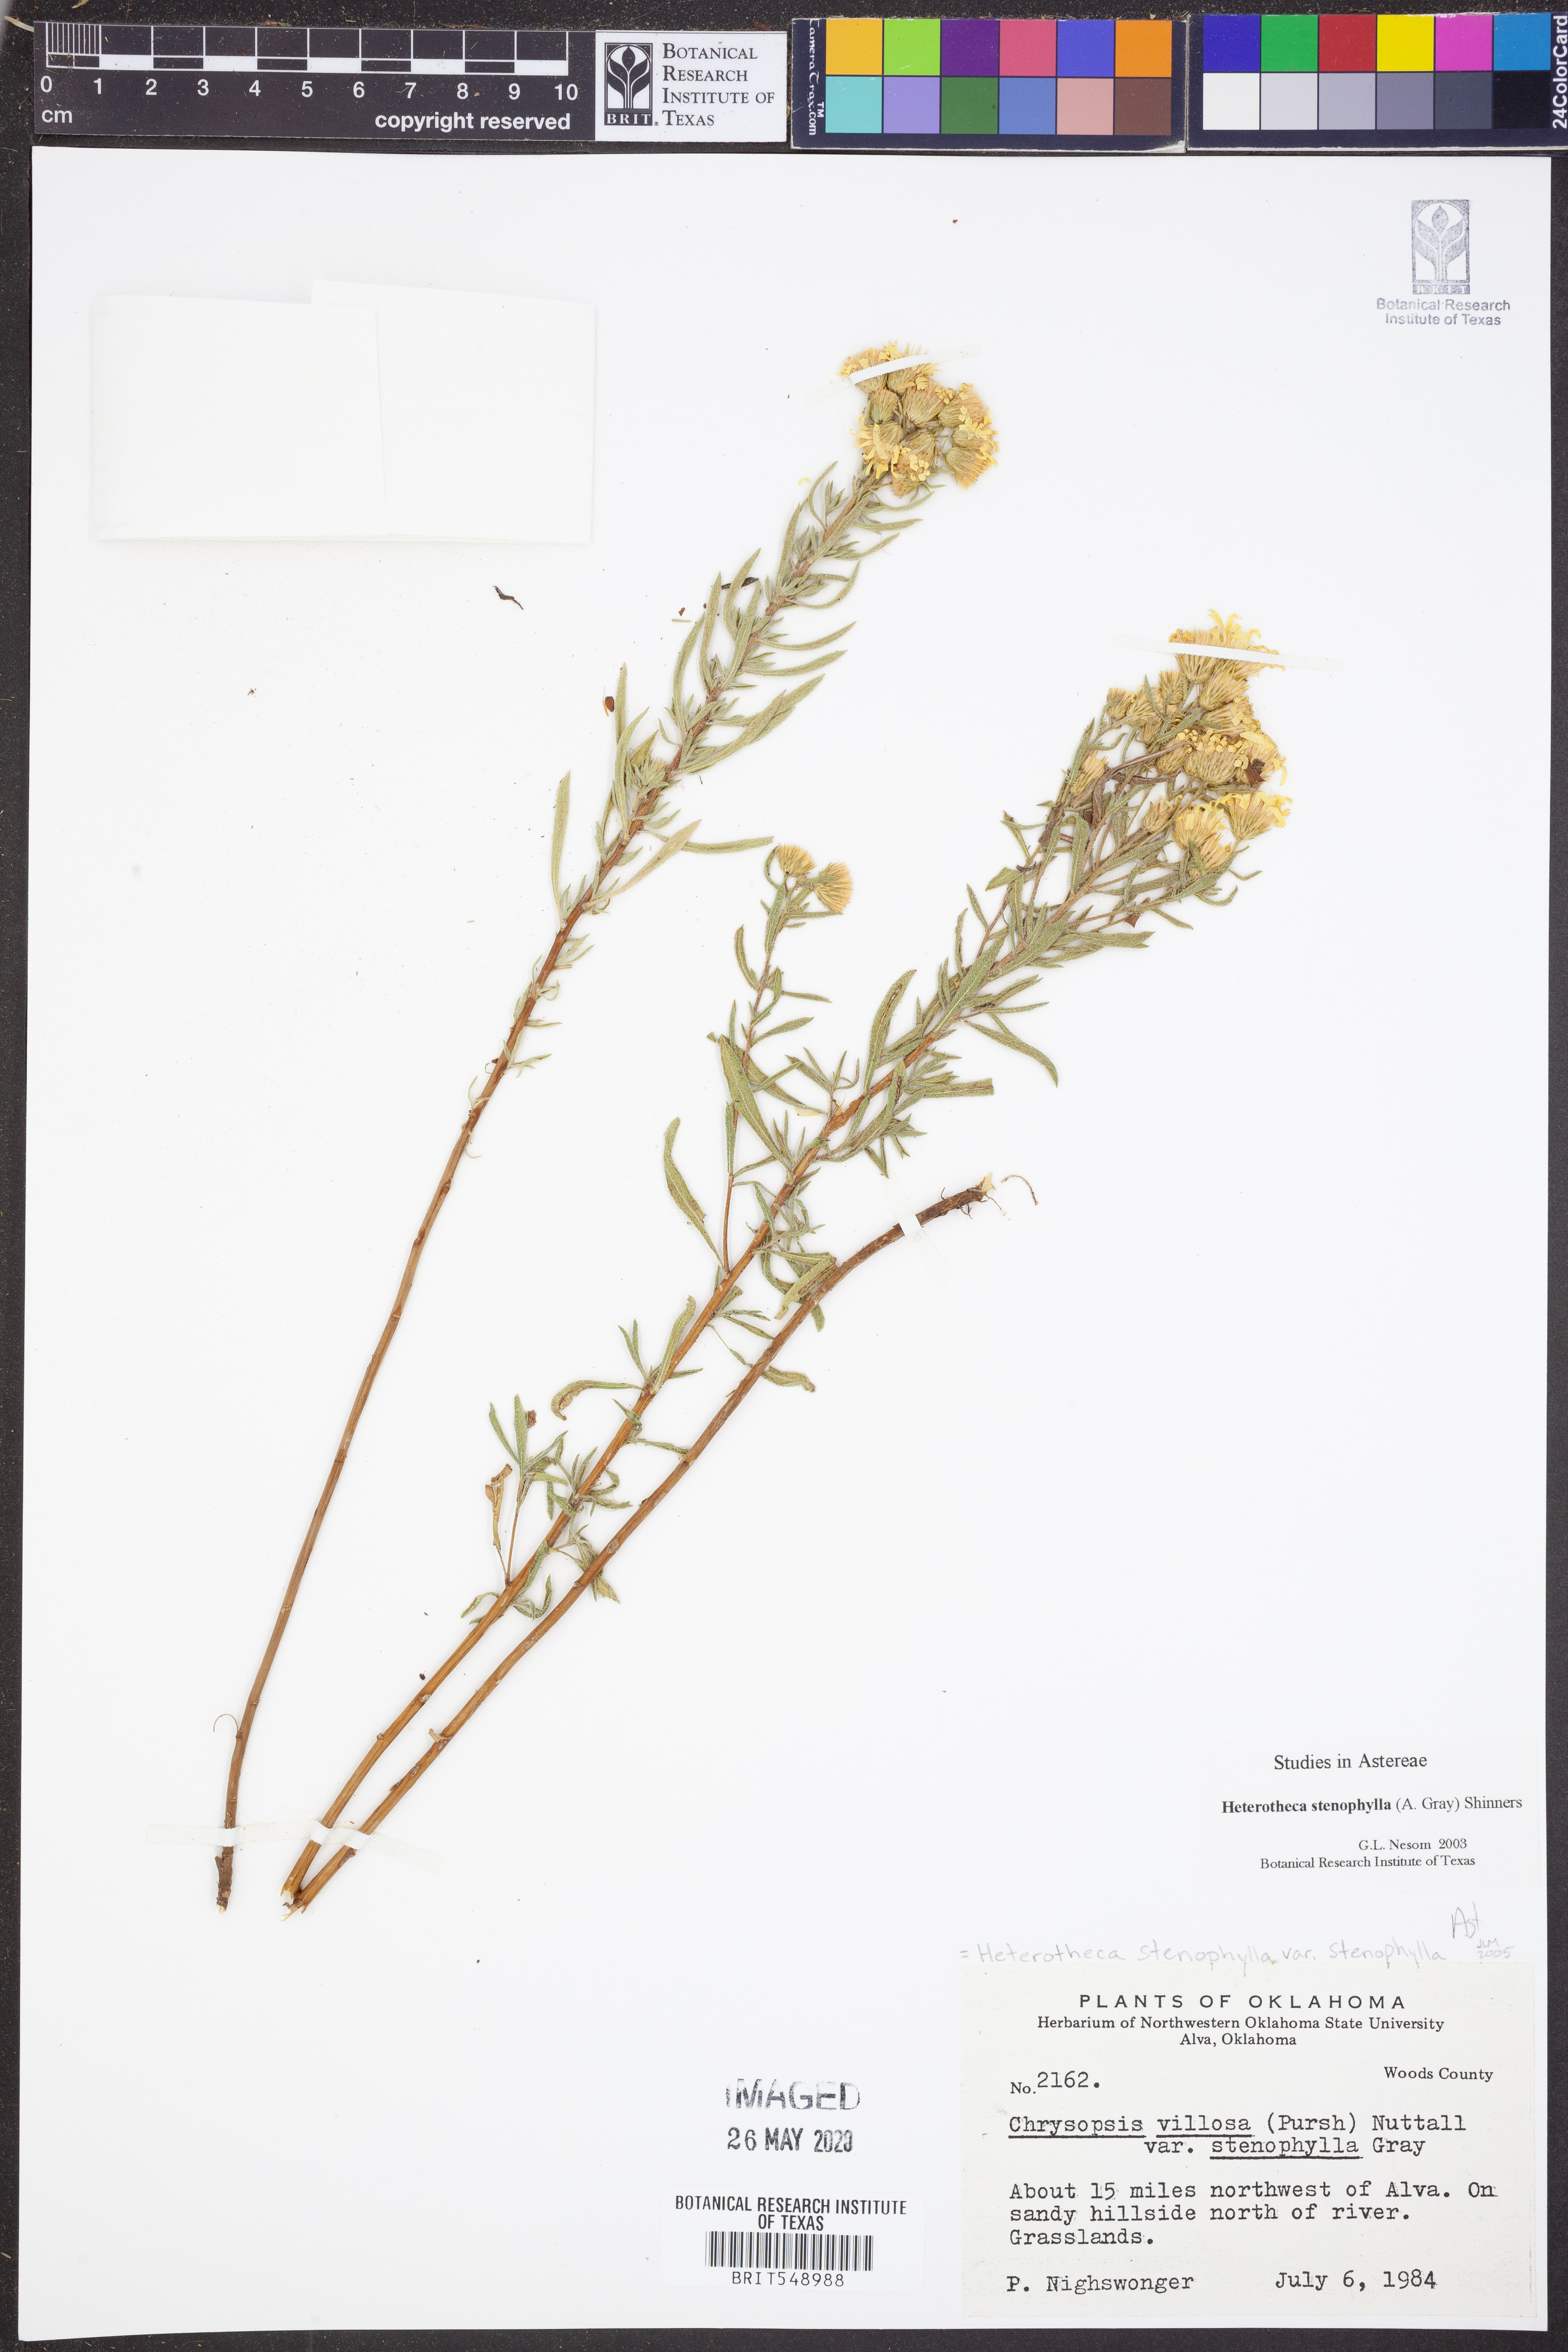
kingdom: Plantae
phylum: Tracheophyta
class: Magnoliopsida
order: Asterales
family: Asteraceae
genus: Heterotheca
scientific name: Heterotheca stenophylla
